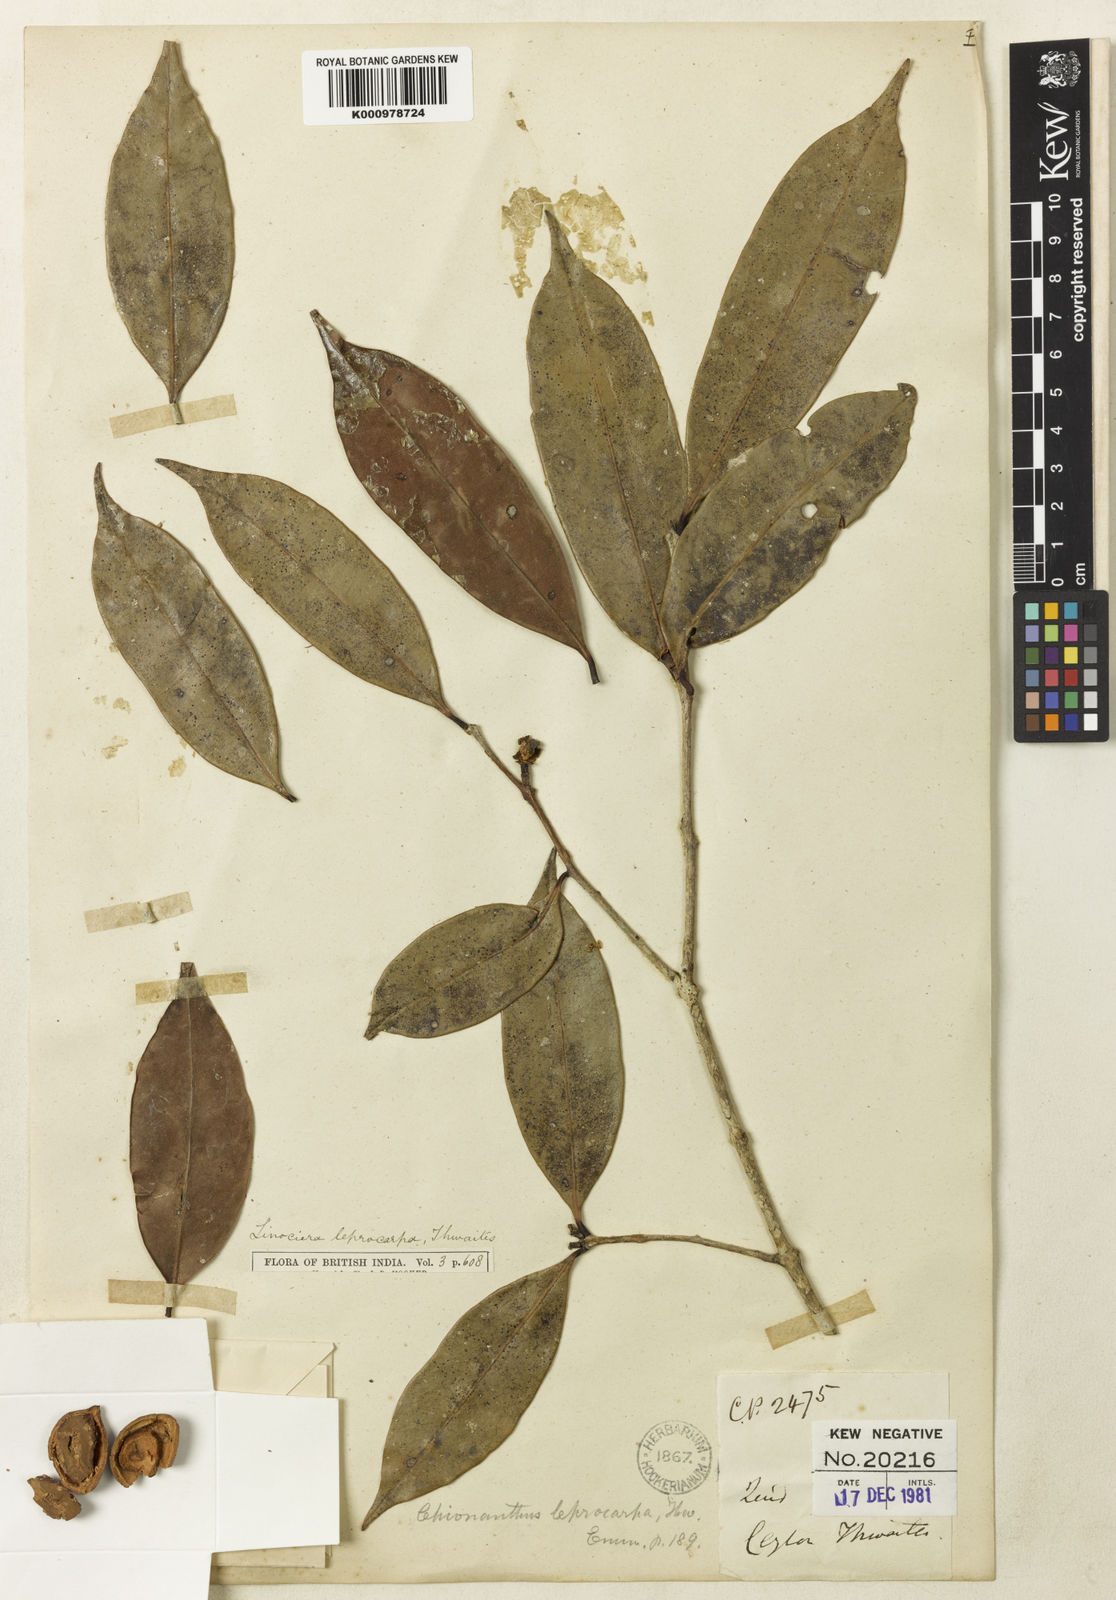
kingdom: Plantae
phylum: Tracheophyta
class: Magnoliopsida
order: Lamiales
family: Oleaceae
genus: Chionanthus
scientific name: Chionanthus albidiflorus
